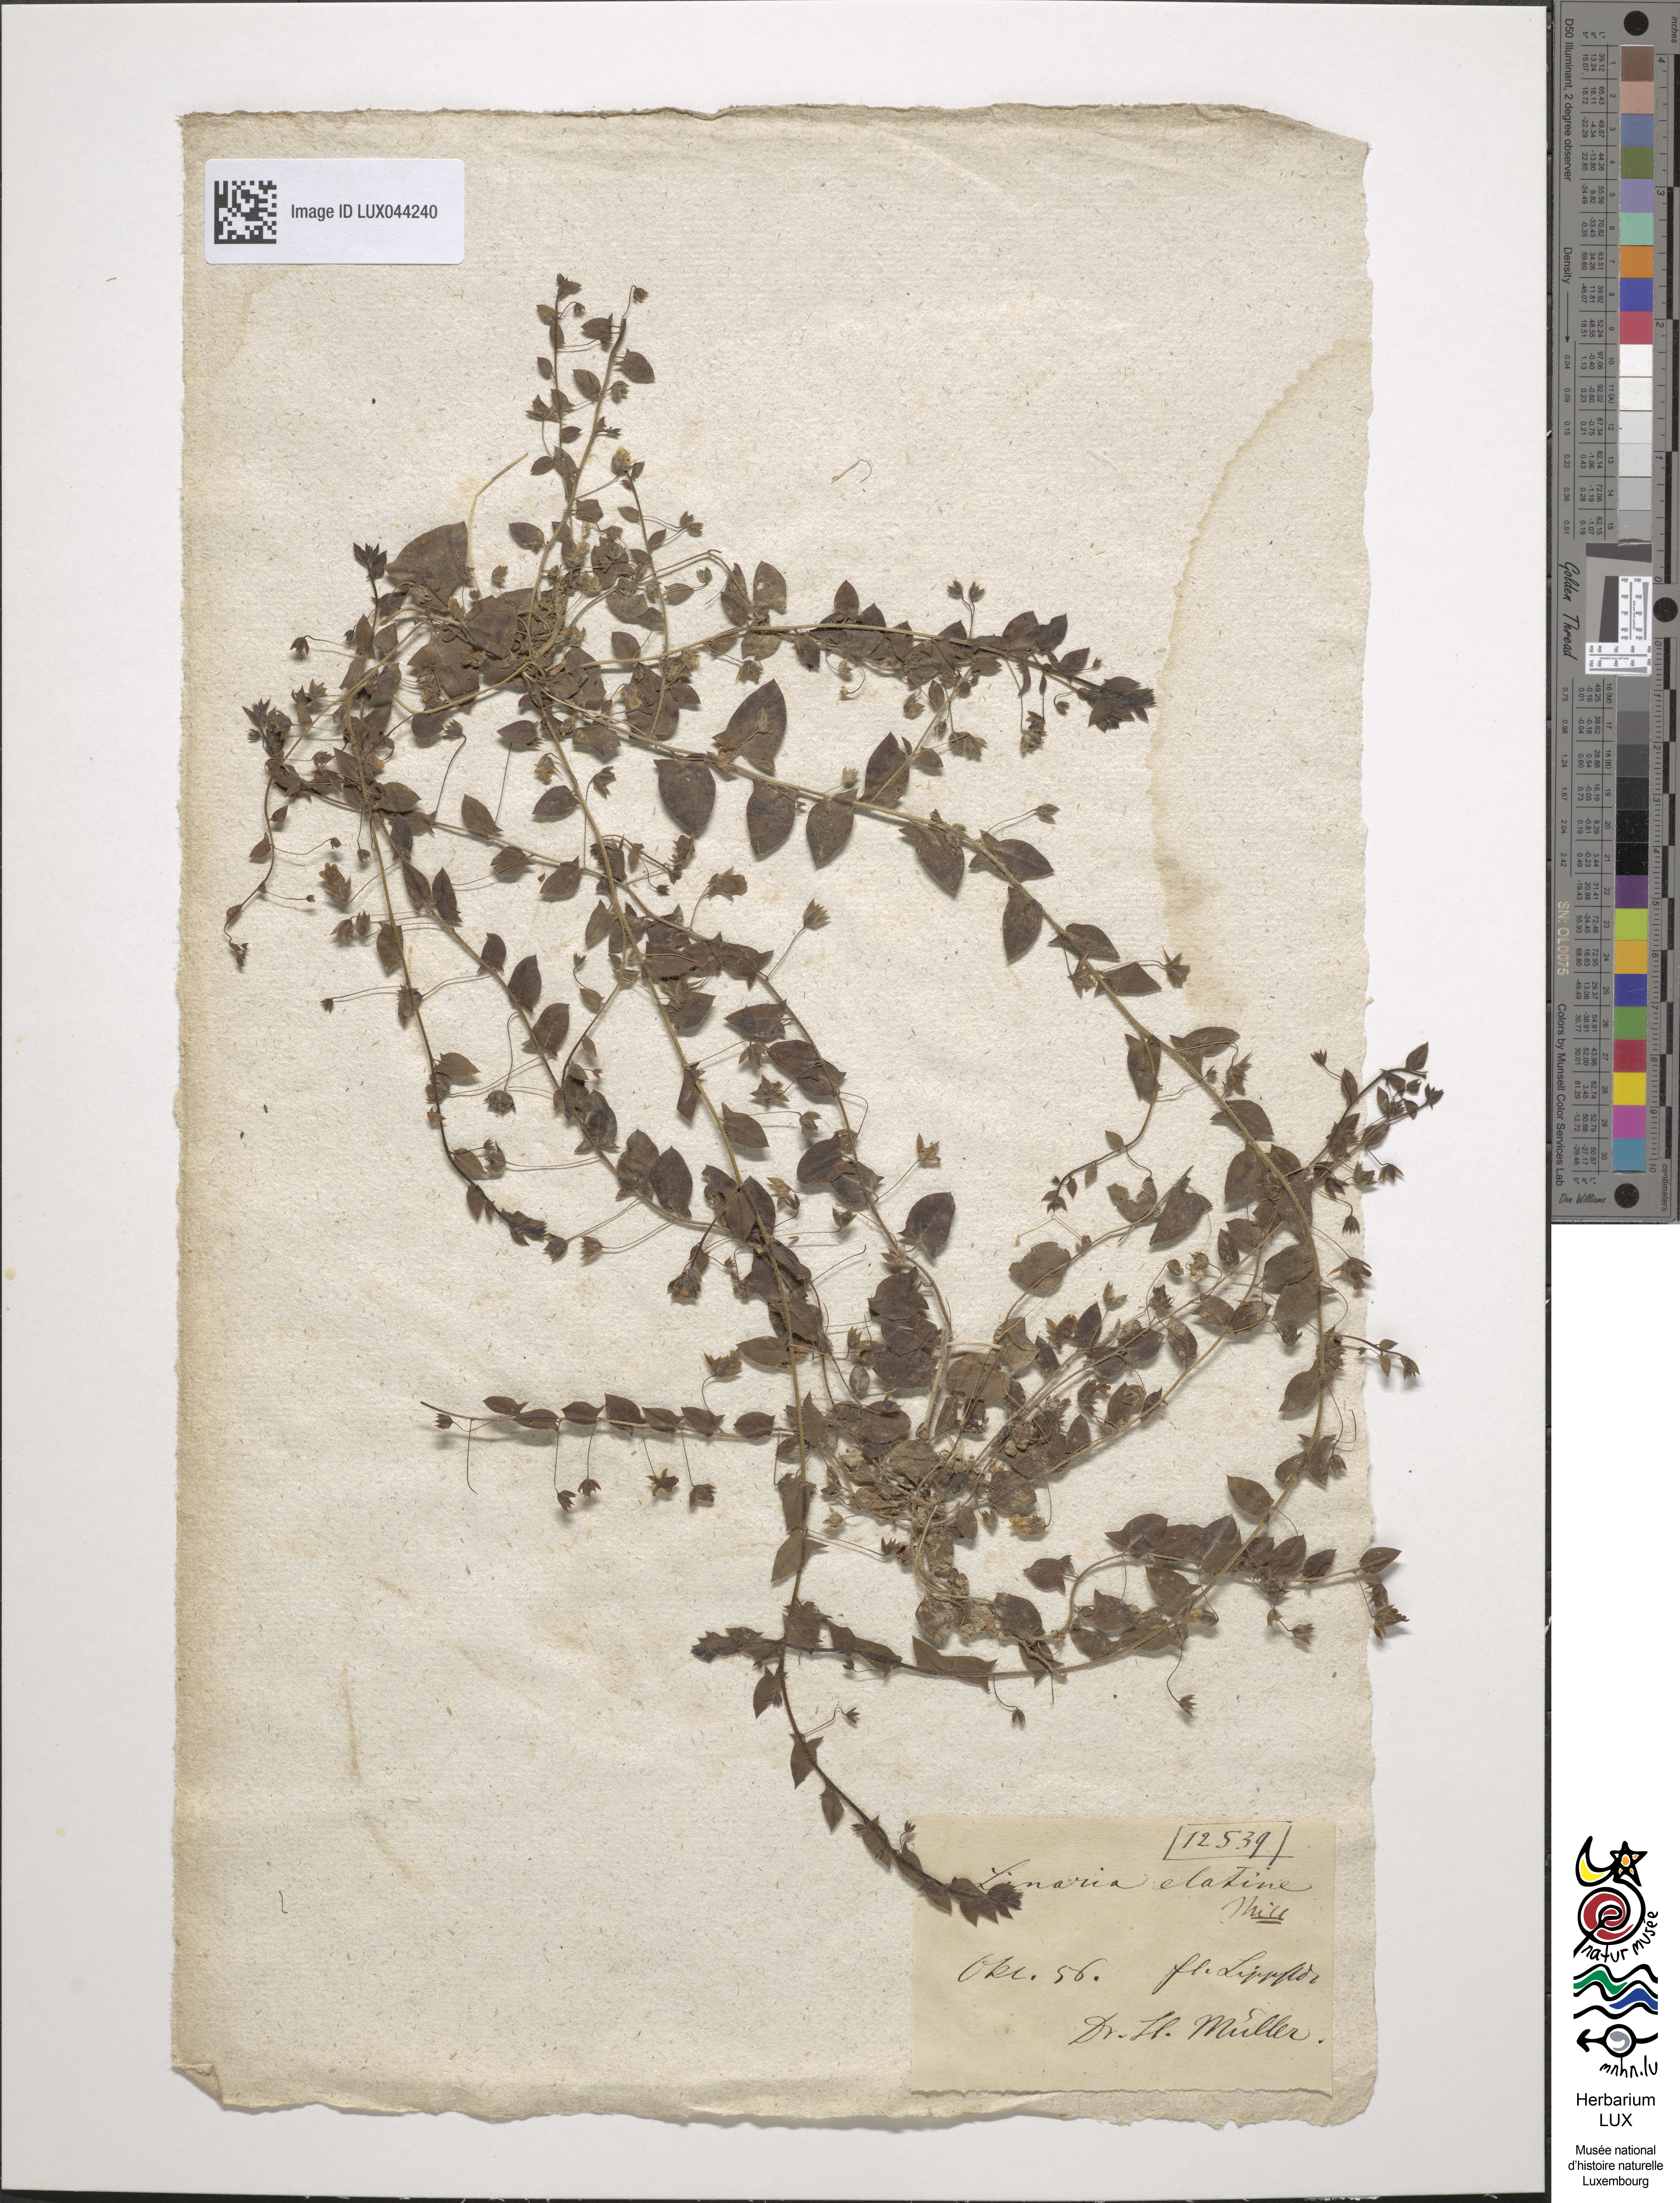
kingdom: Plantae
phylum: Tracheophyta
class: Magnoliopsida
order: Lamiales
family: Plantaginaceae
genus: Kickxia
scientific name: Kickxia elatine
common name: Sharp-leaved fluellen
